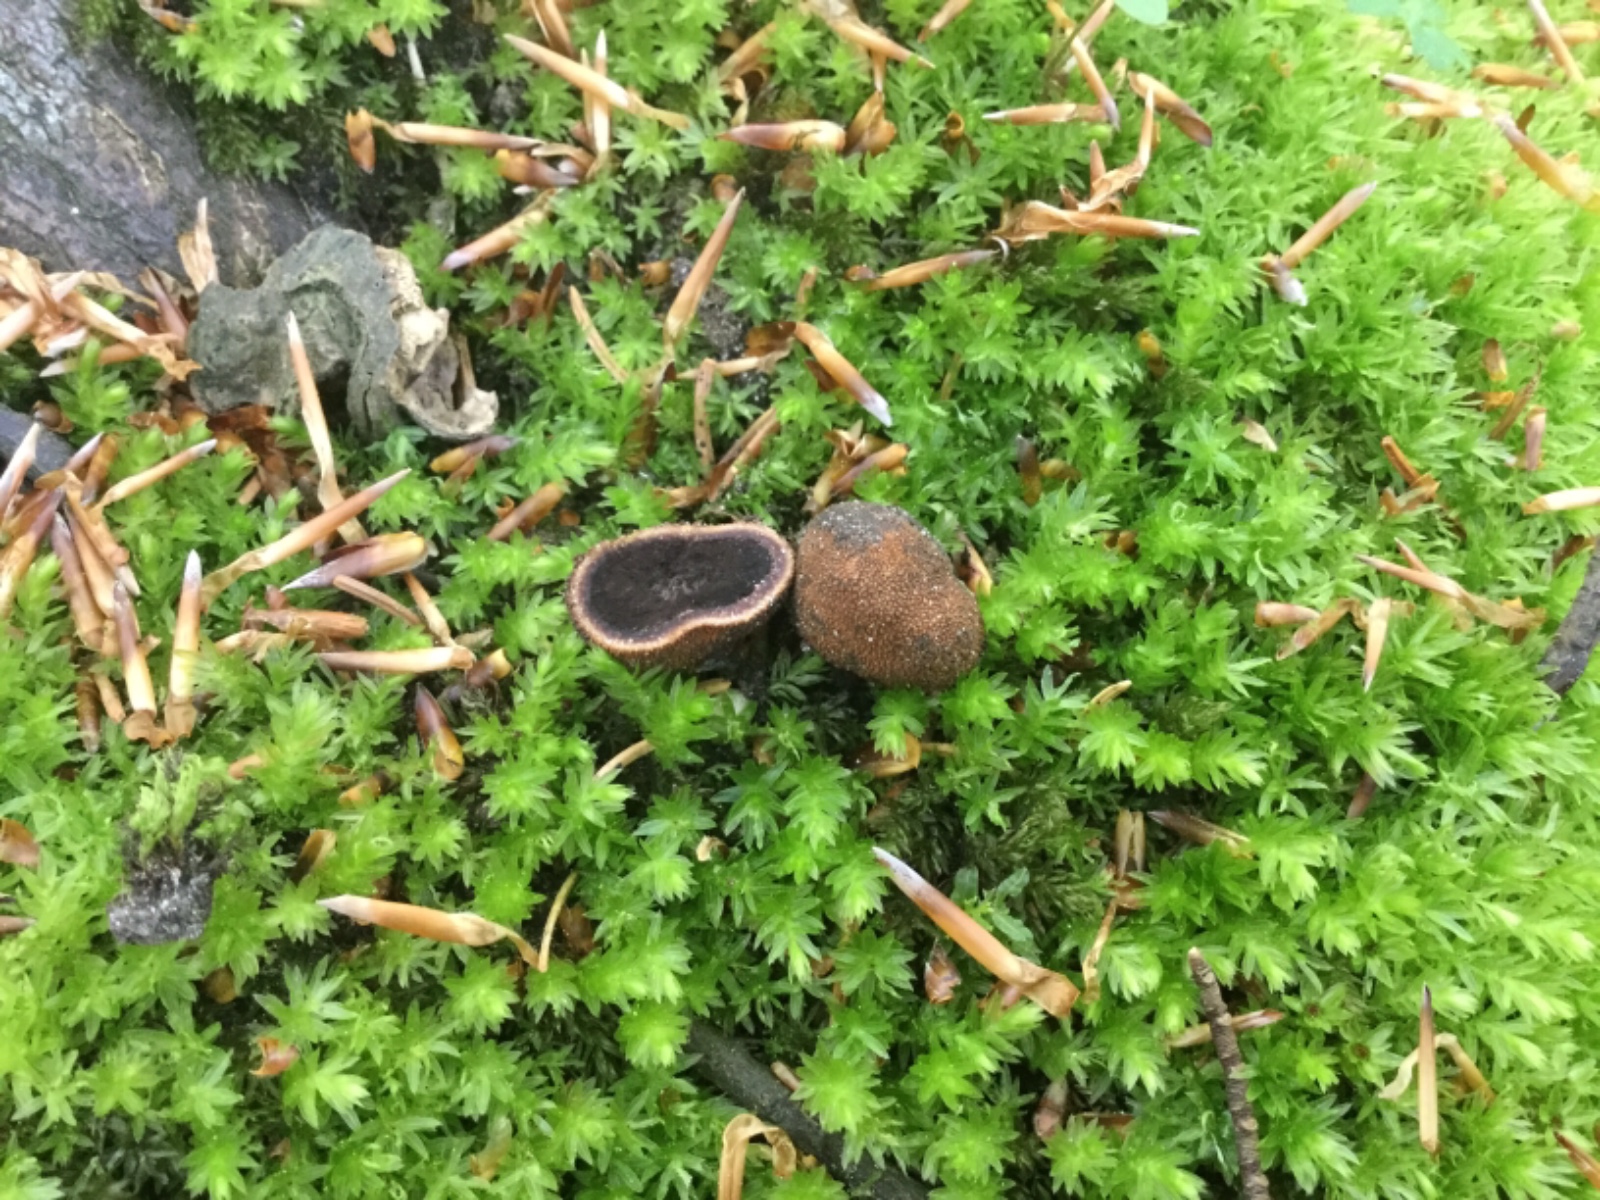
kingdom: Fungi
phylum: Ascomycota
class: Eurotiomycetes
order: Eurotiales
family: Elaphomycetaceae
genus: Elaphomyces
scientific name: Elaphomyces muricatus
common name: vortet hjortetrøffel
